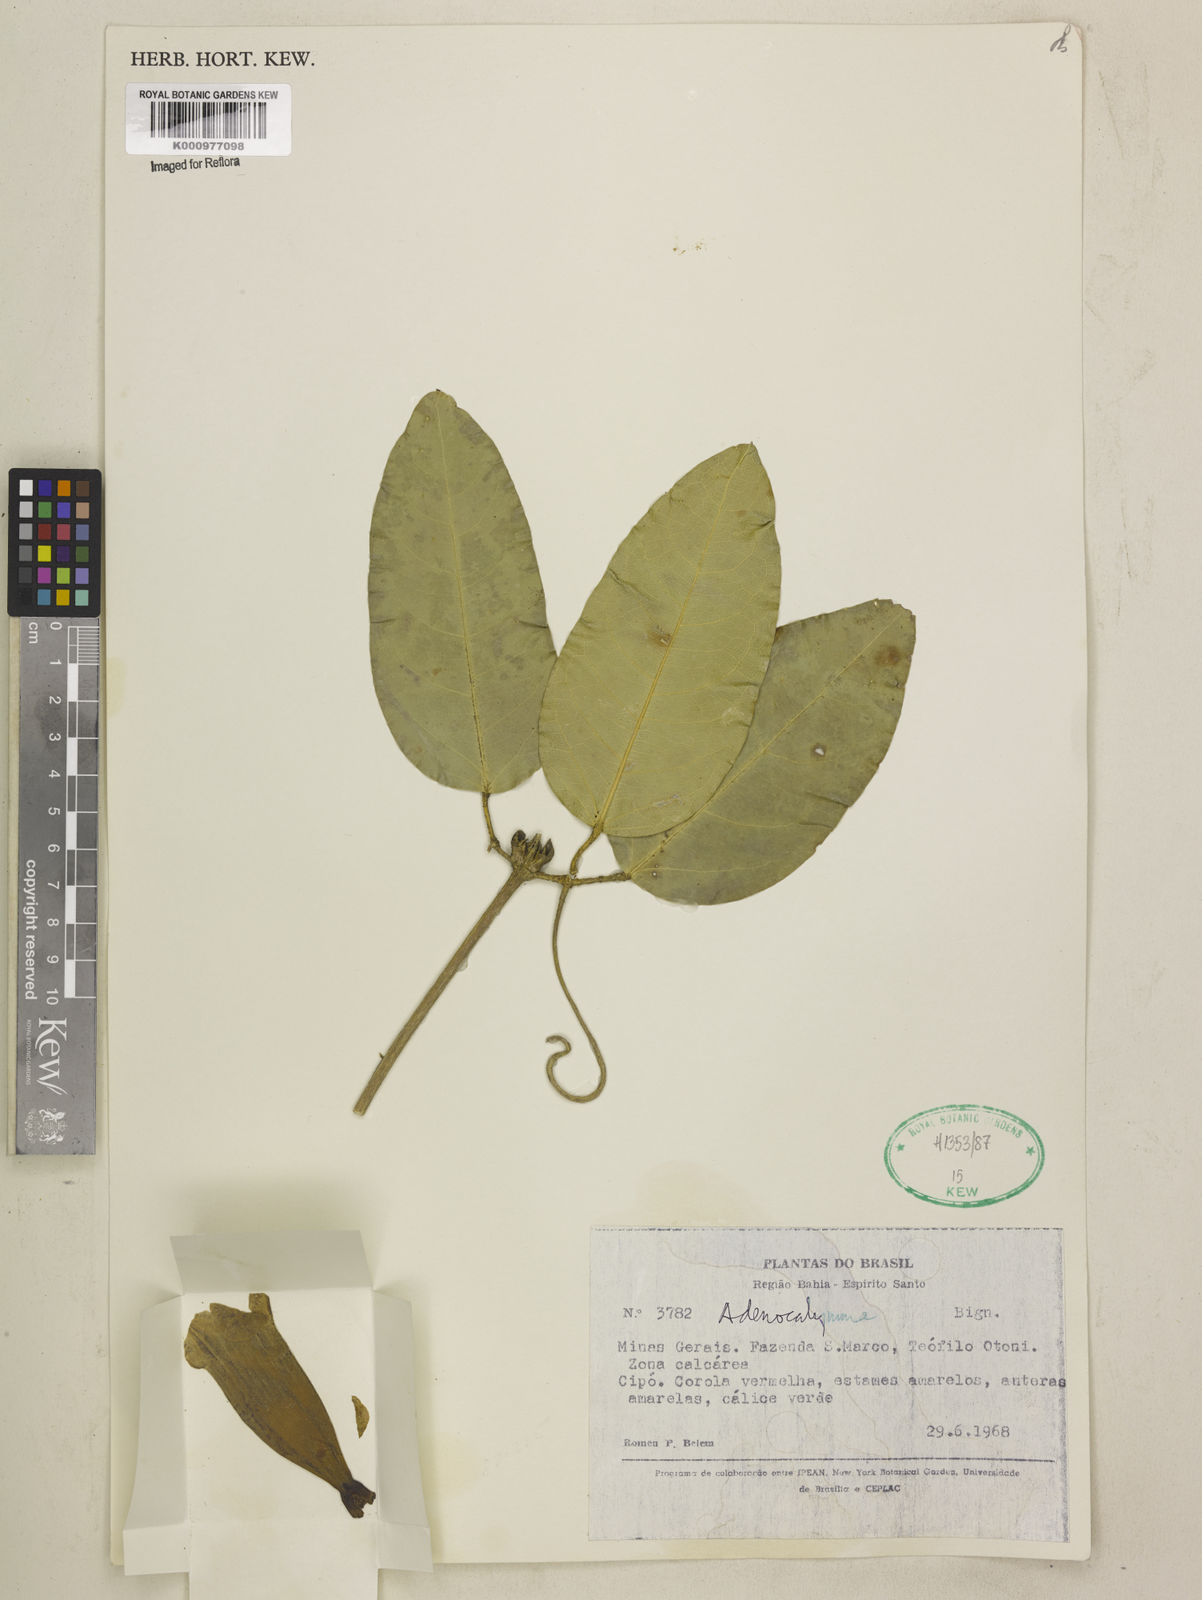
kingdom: Plantae
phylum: Tracheophyta
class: Magnoliopsida
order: Lamiales
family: Bignoniaceae
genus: Adenocalymma
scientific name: Adenocalymma
